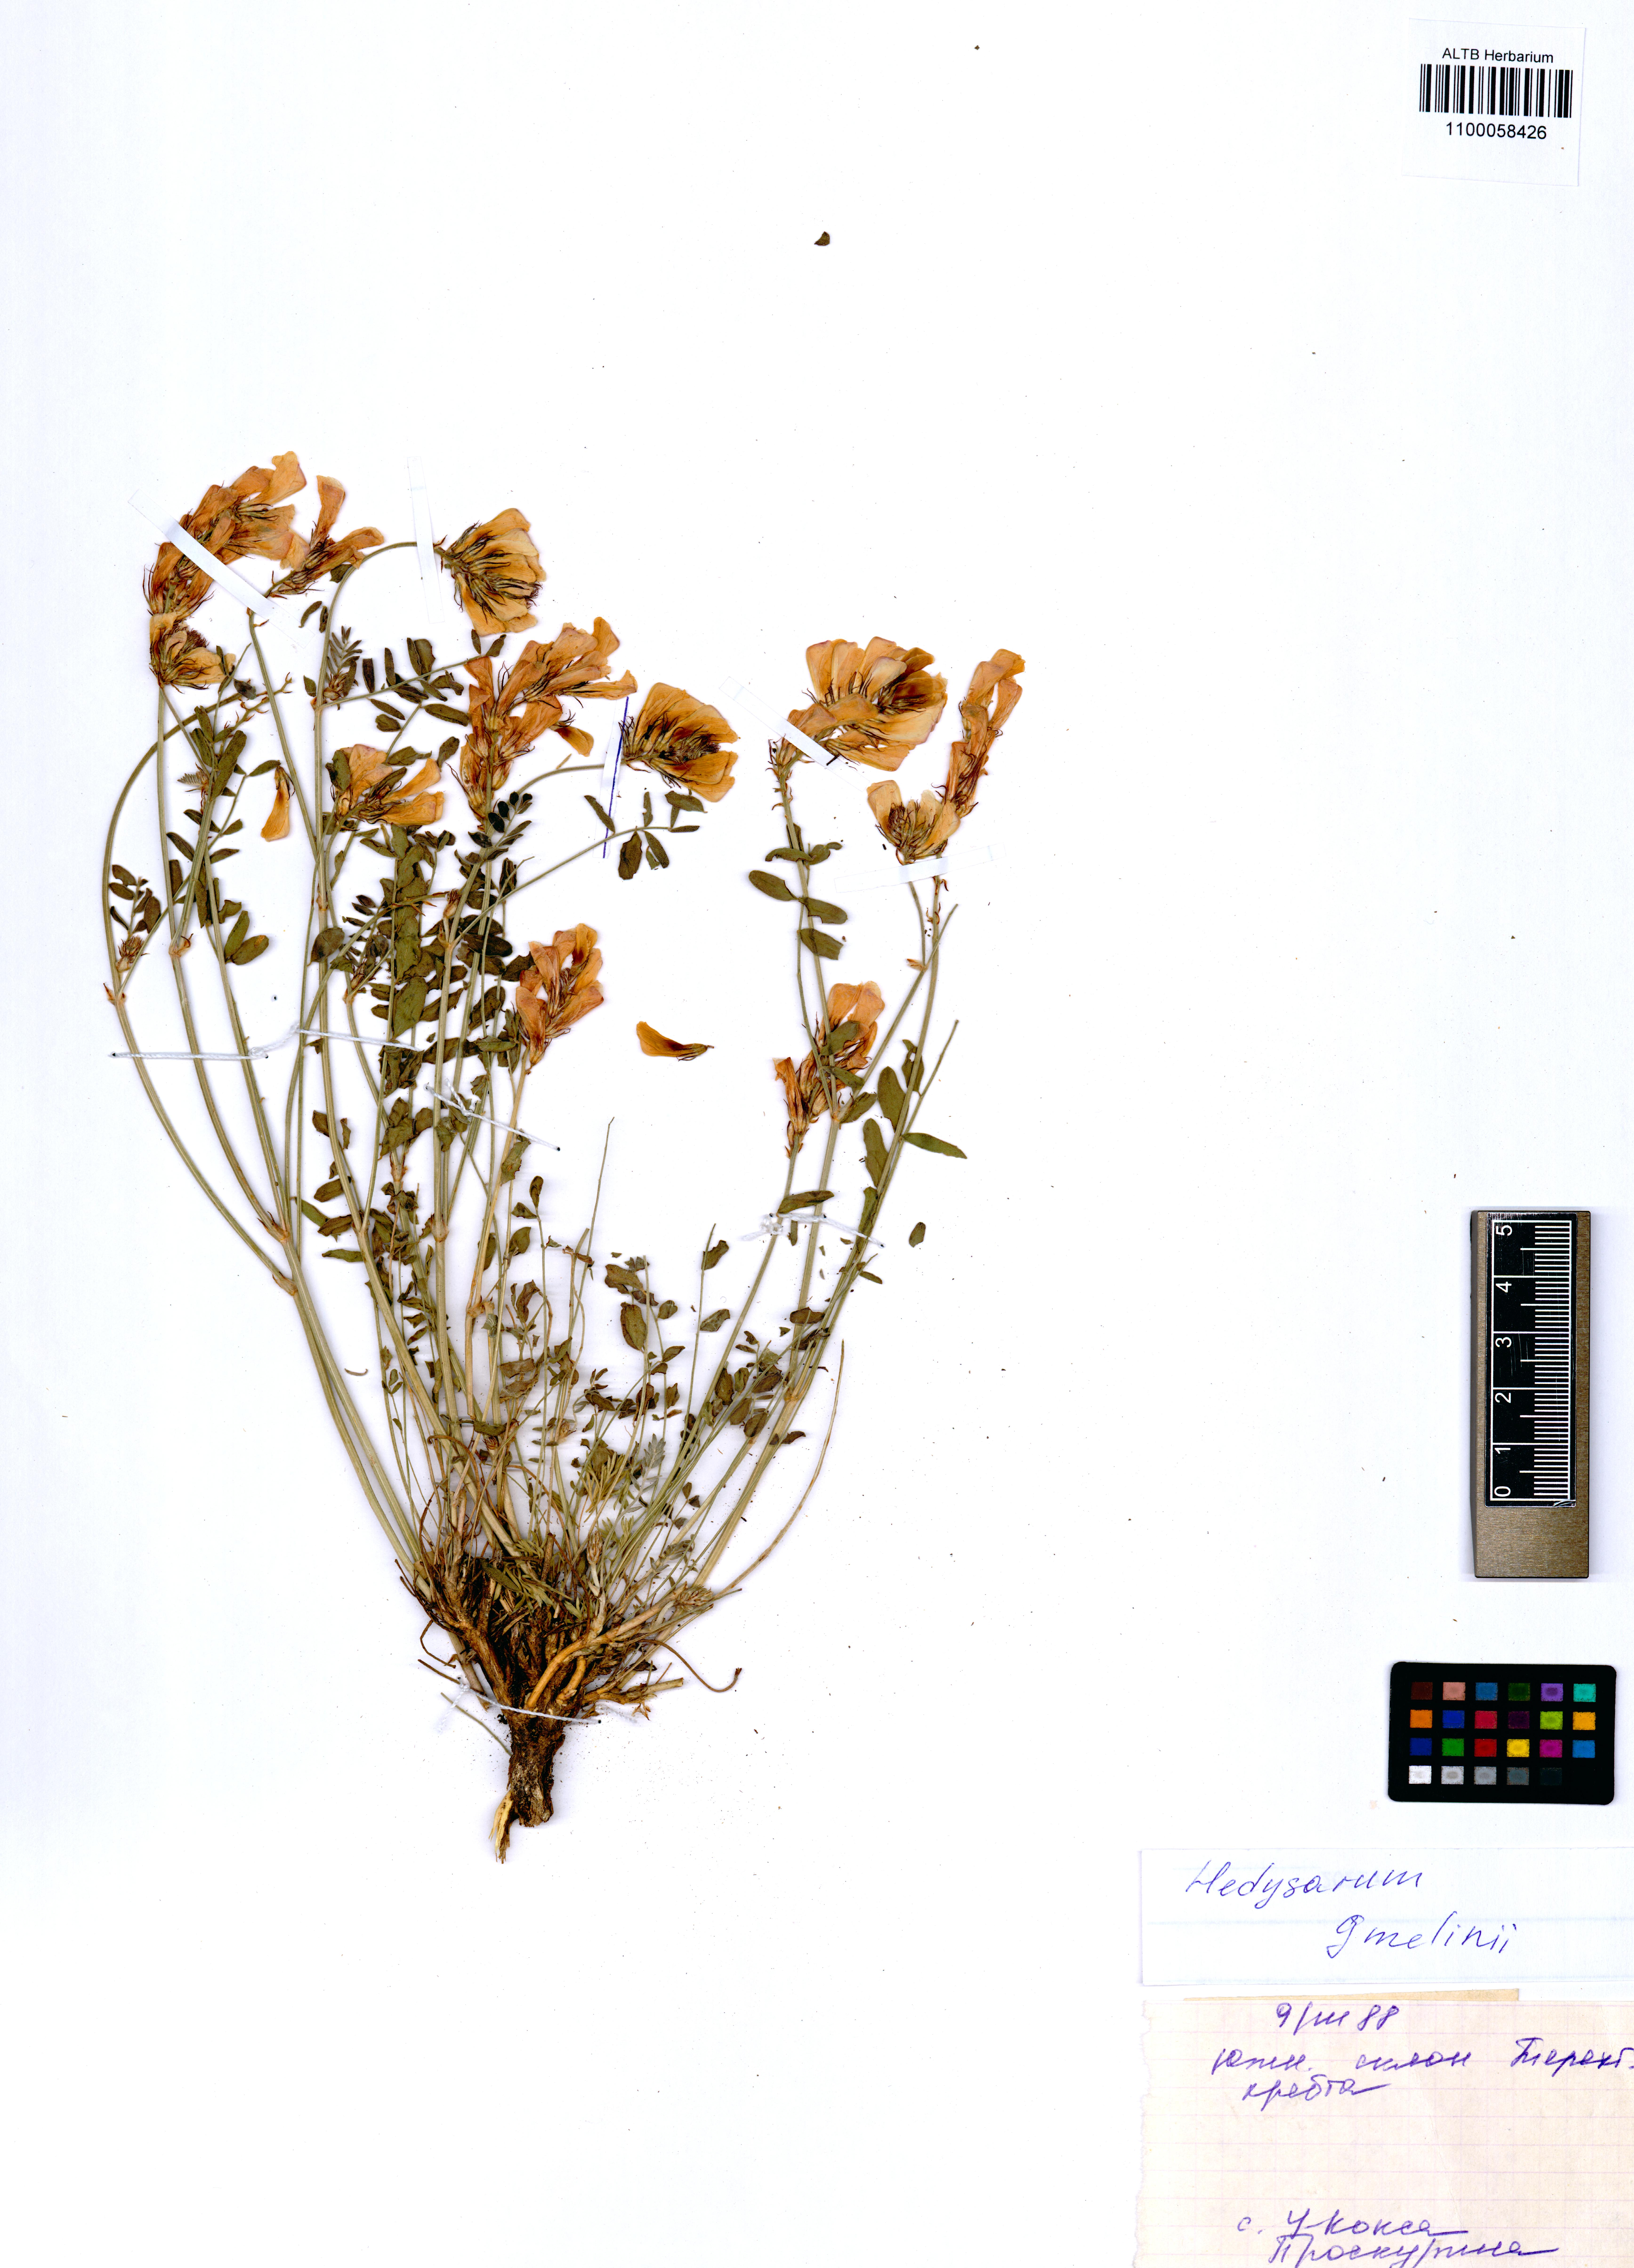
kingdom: Plantae
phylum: Tracheophyta
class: Magnoliopsida
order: Fabales
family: Fabaceae
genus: Hedysarum
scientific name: Hedysarum gmelinii
